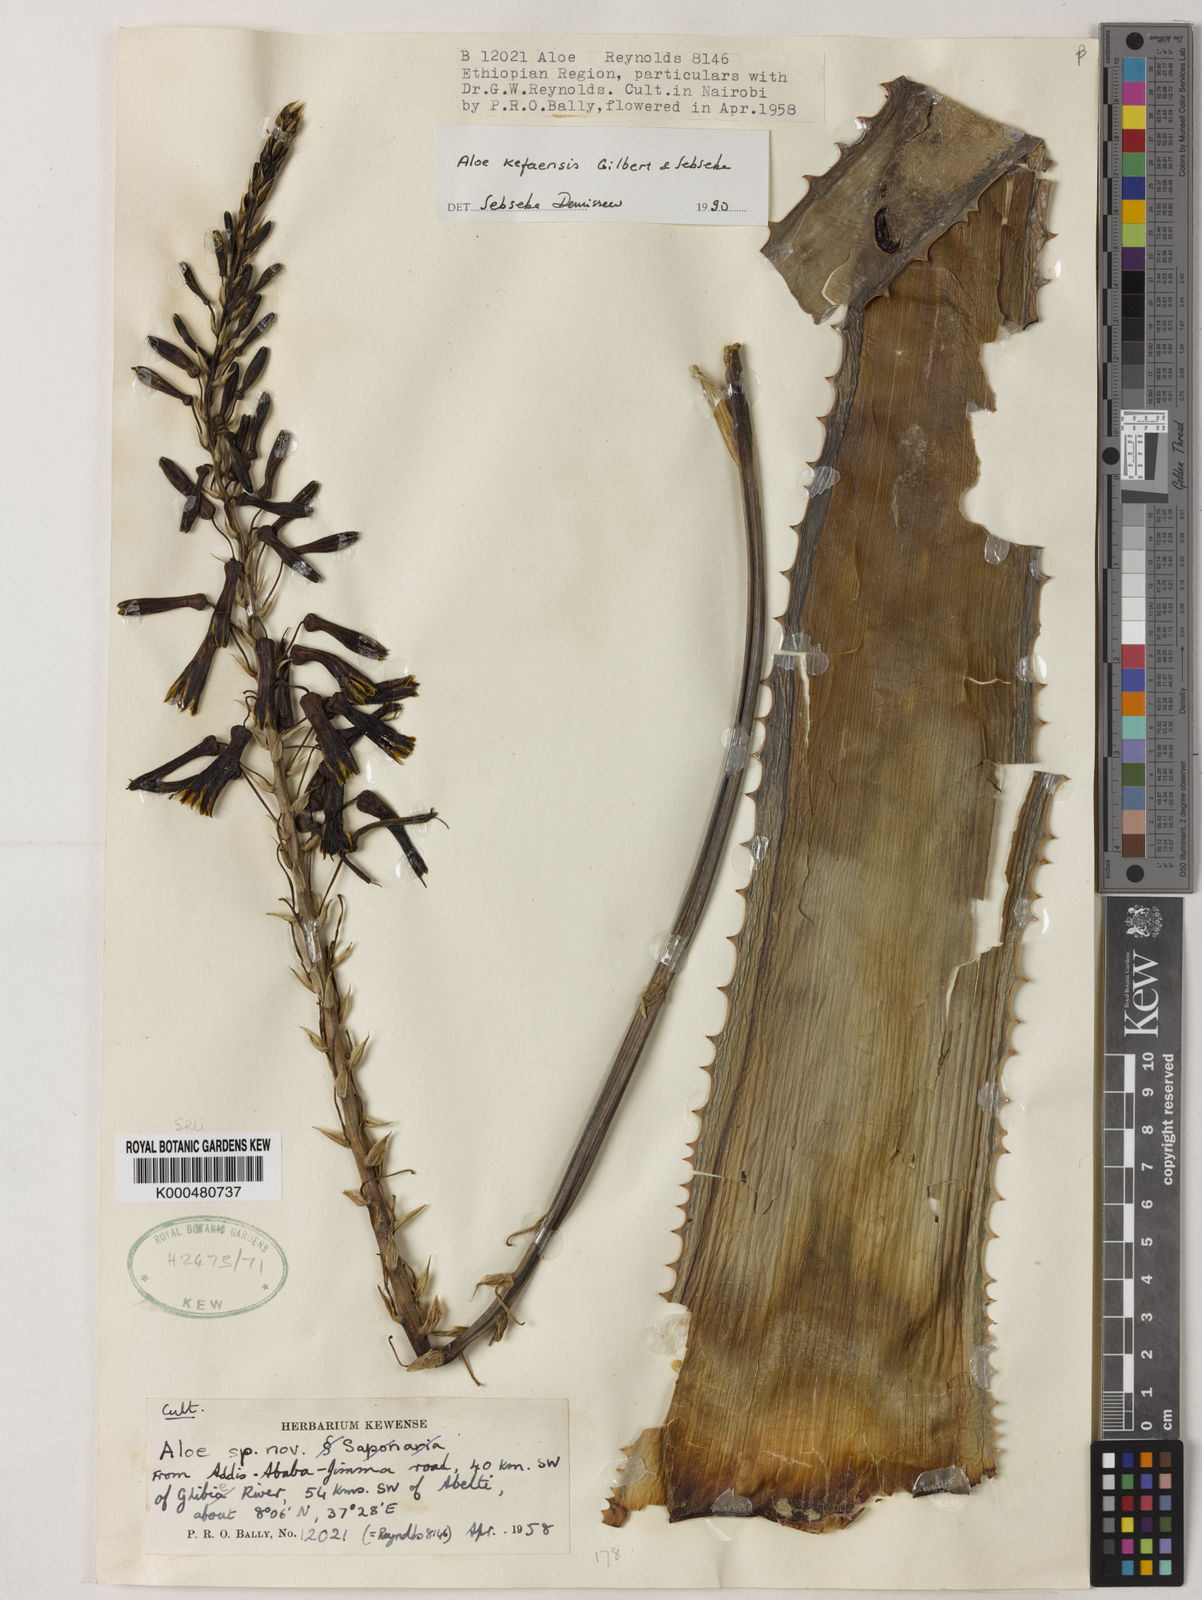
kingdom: Plantae
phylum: Tracheophyta
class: Liliopsida
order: Asparagales
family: Asphodelaceae
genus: Aloe
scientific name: Aloe kefaensis
